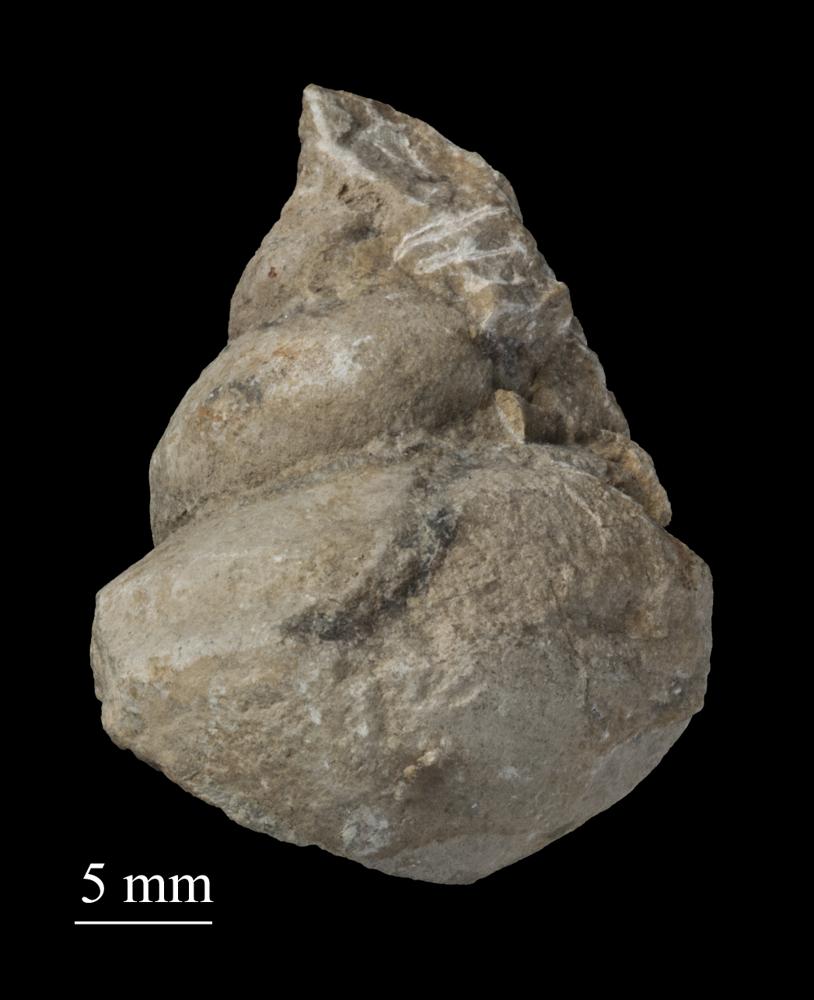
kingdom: Animalia
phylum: Mollusca
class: Gastropoda
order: Neogastropoda
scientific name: Neogastropoda
